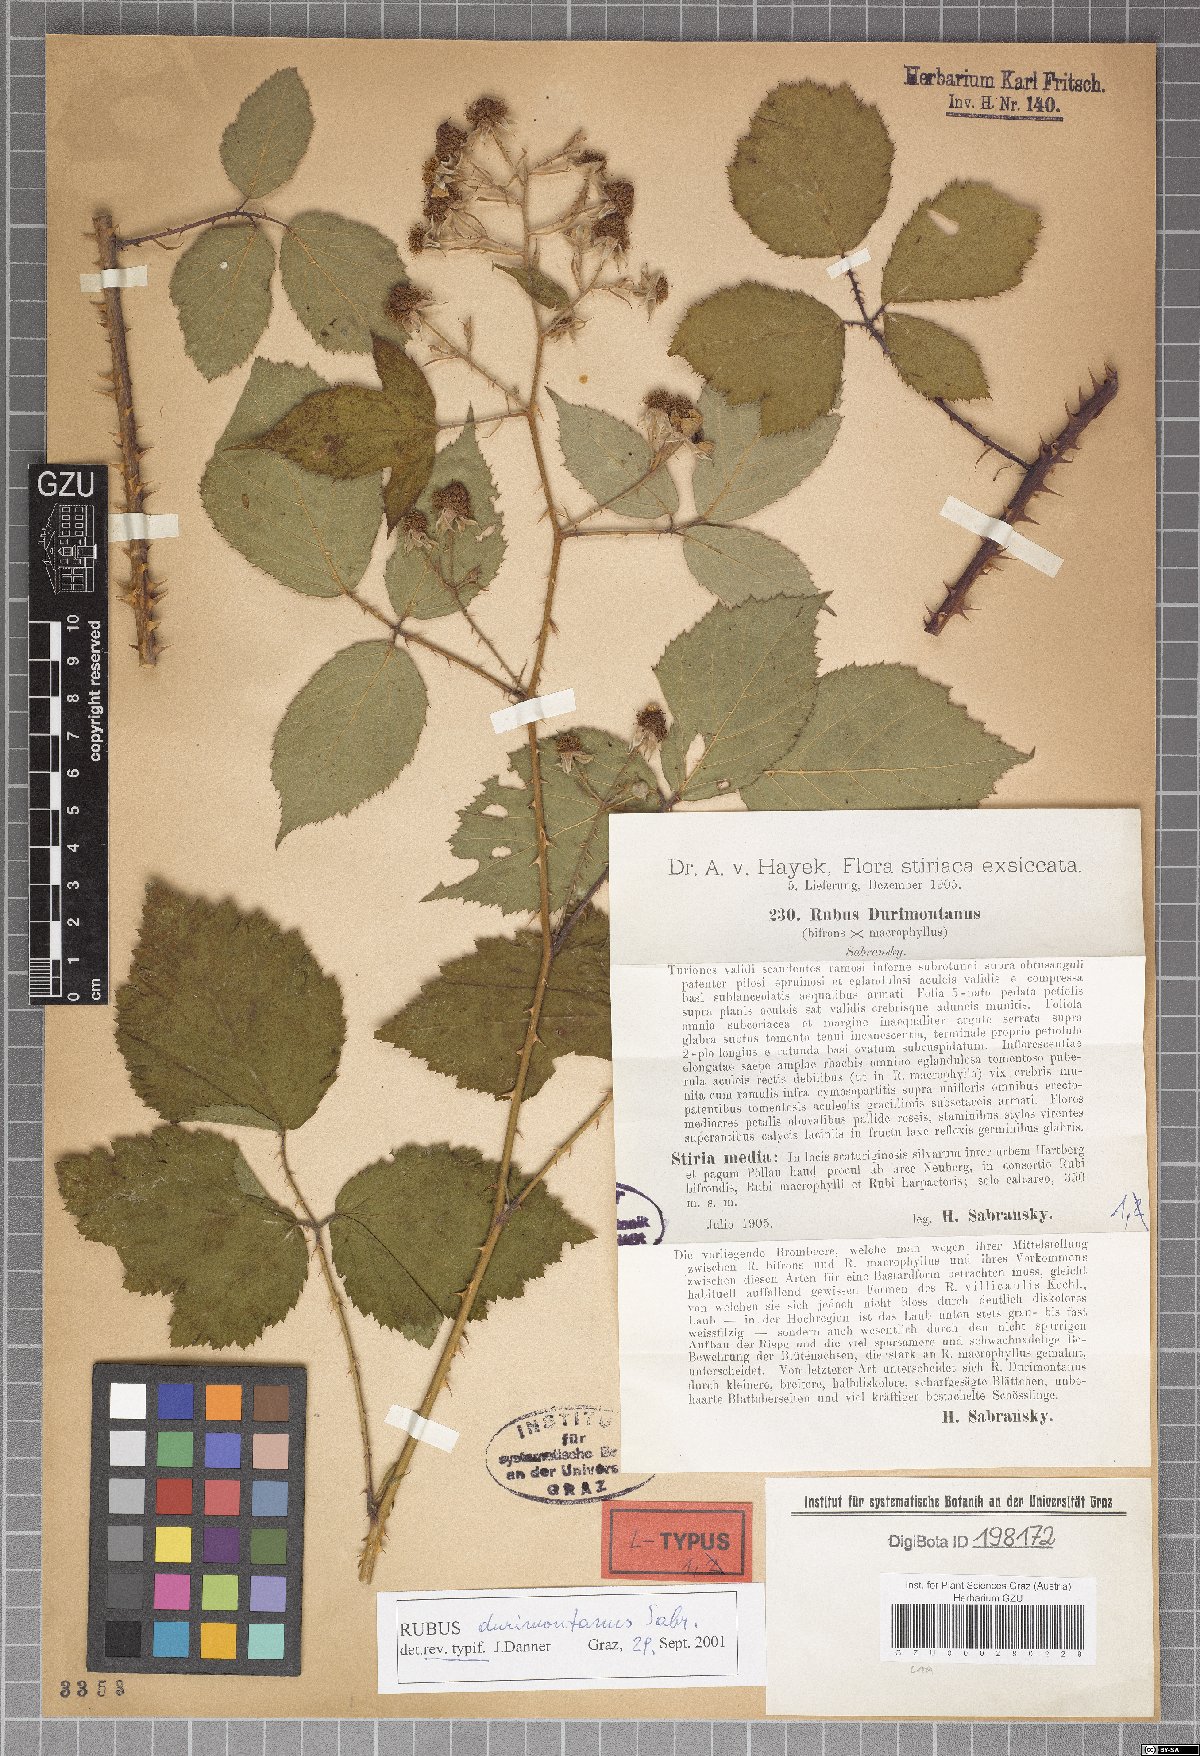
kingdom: Plantae
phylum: Tracheophyta
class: Magnoliopsida
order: Rosales
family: Rosaceae
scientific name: Rosaceae
